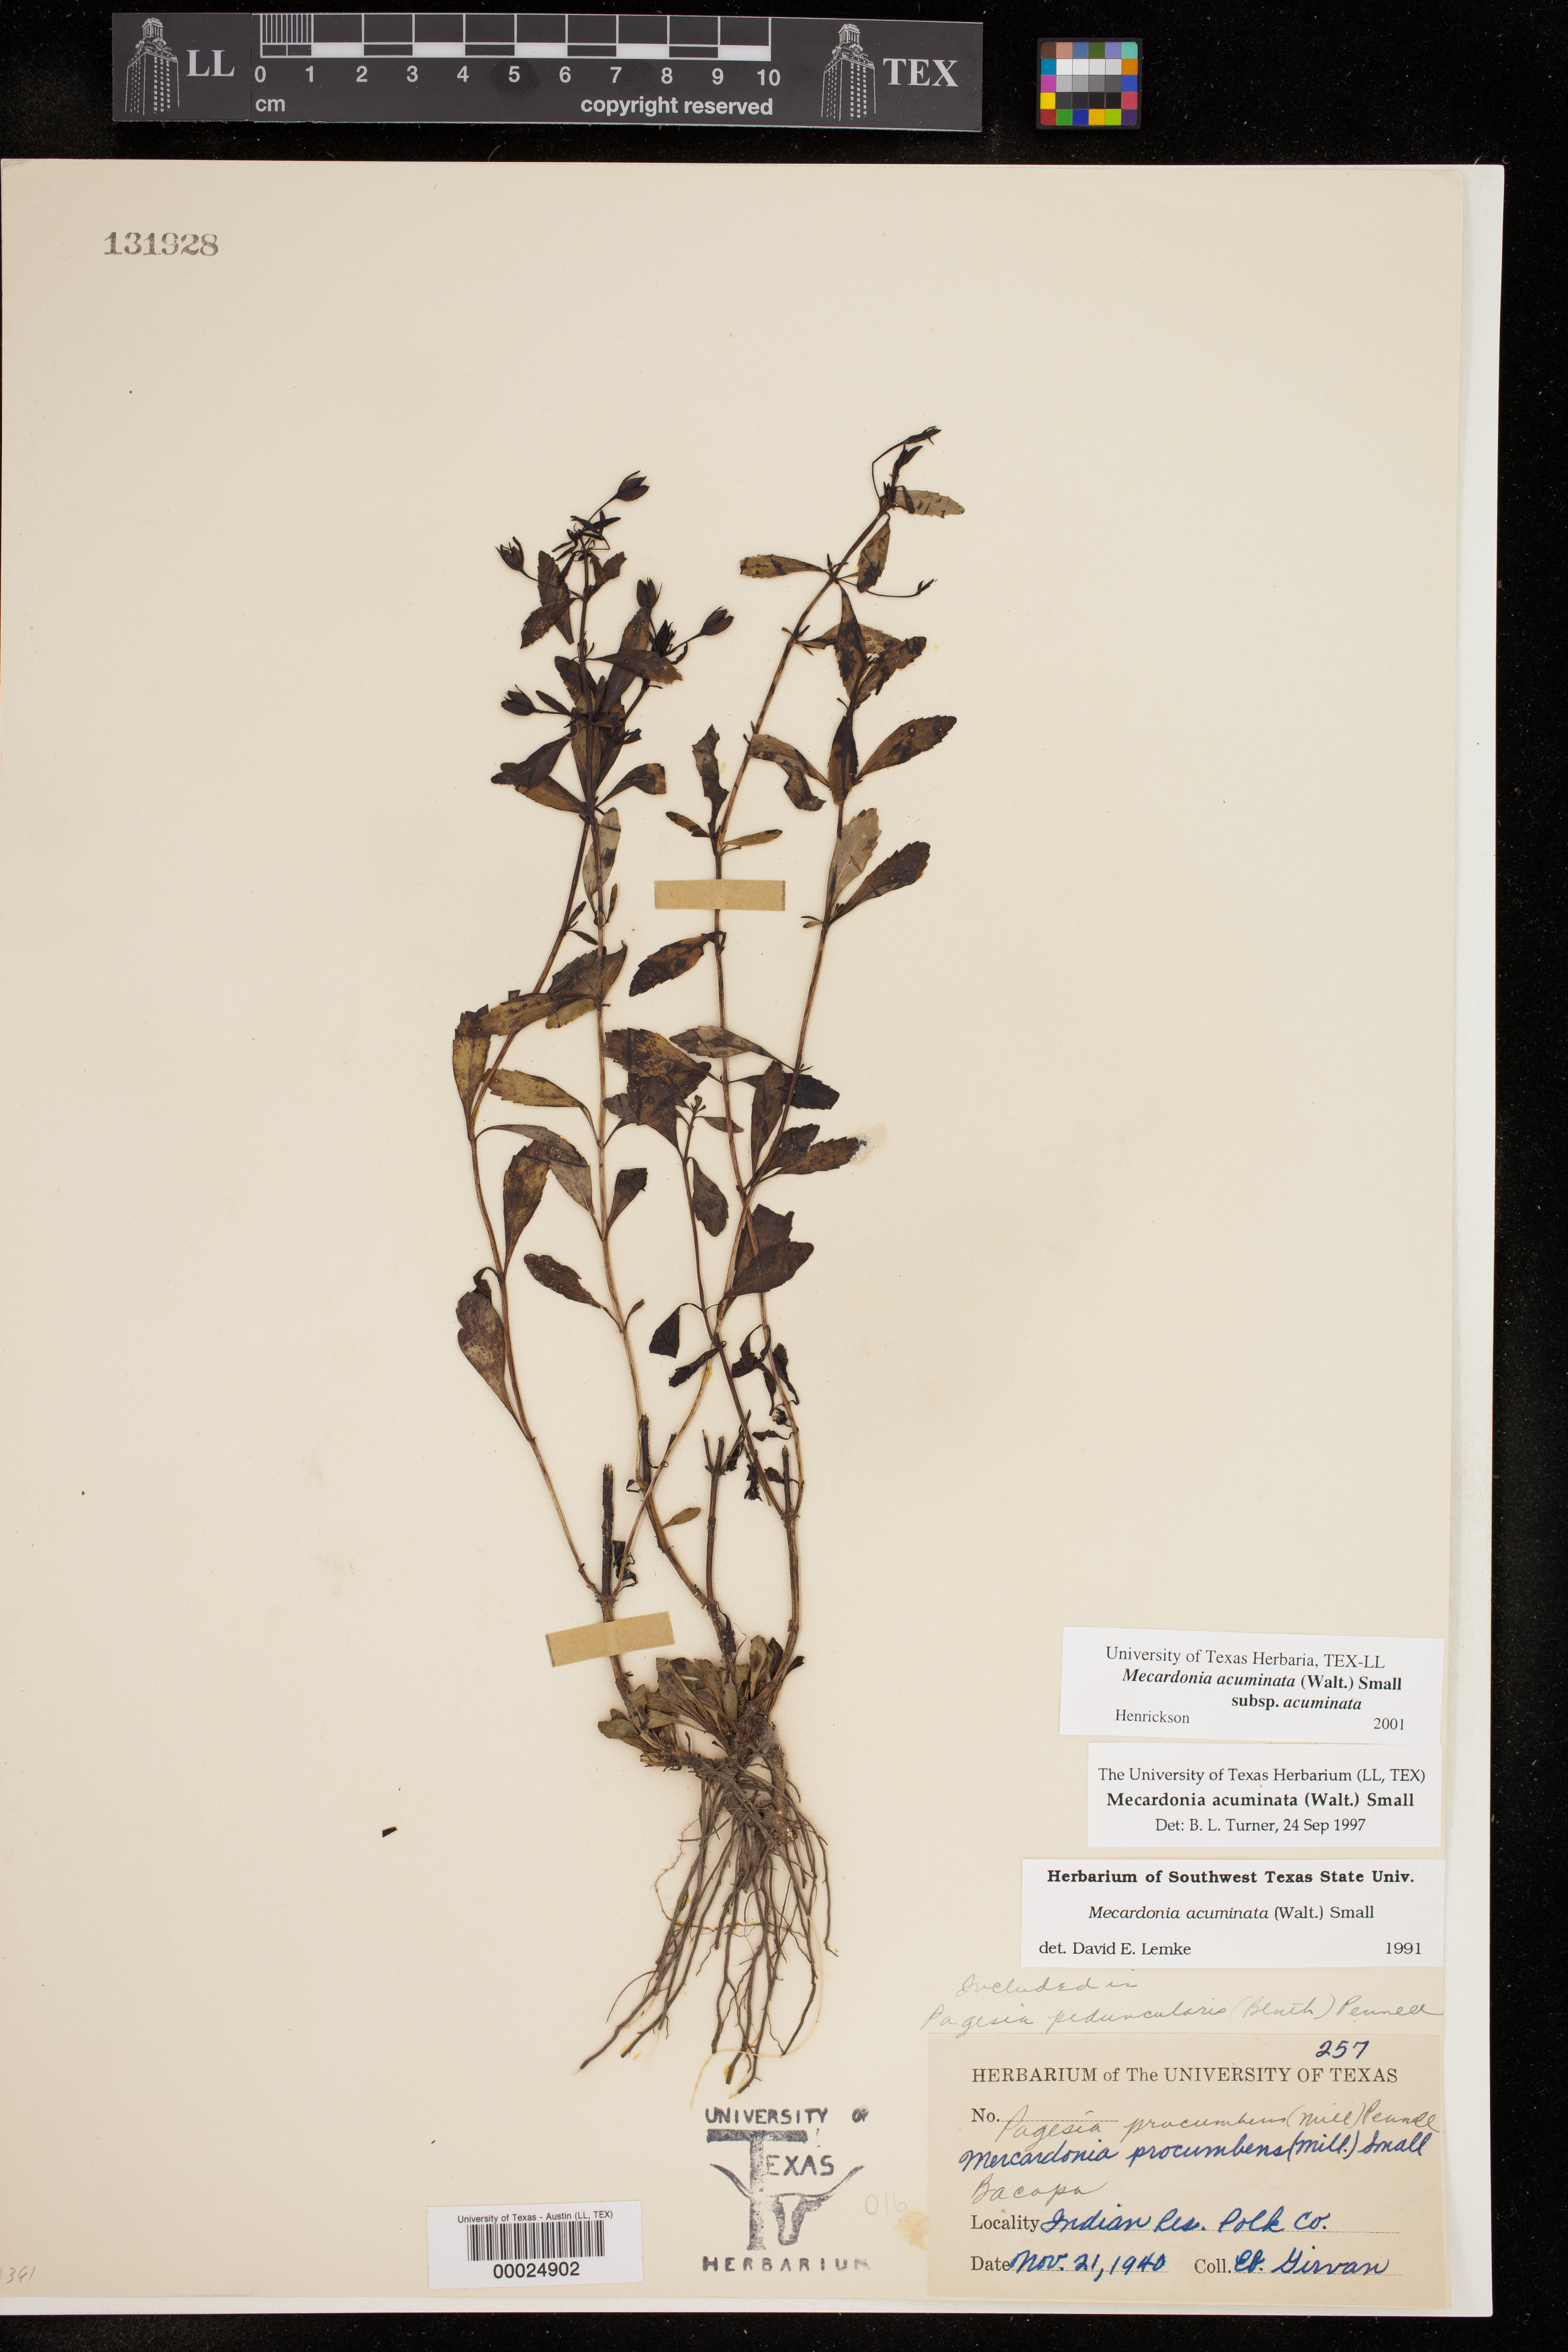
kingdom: Plantae
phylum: Tracheophyta
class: Magnoliopsida
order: Lamiales
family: Plantaginaceae
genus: Mecardonia
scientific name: Mecardonia acuminata
